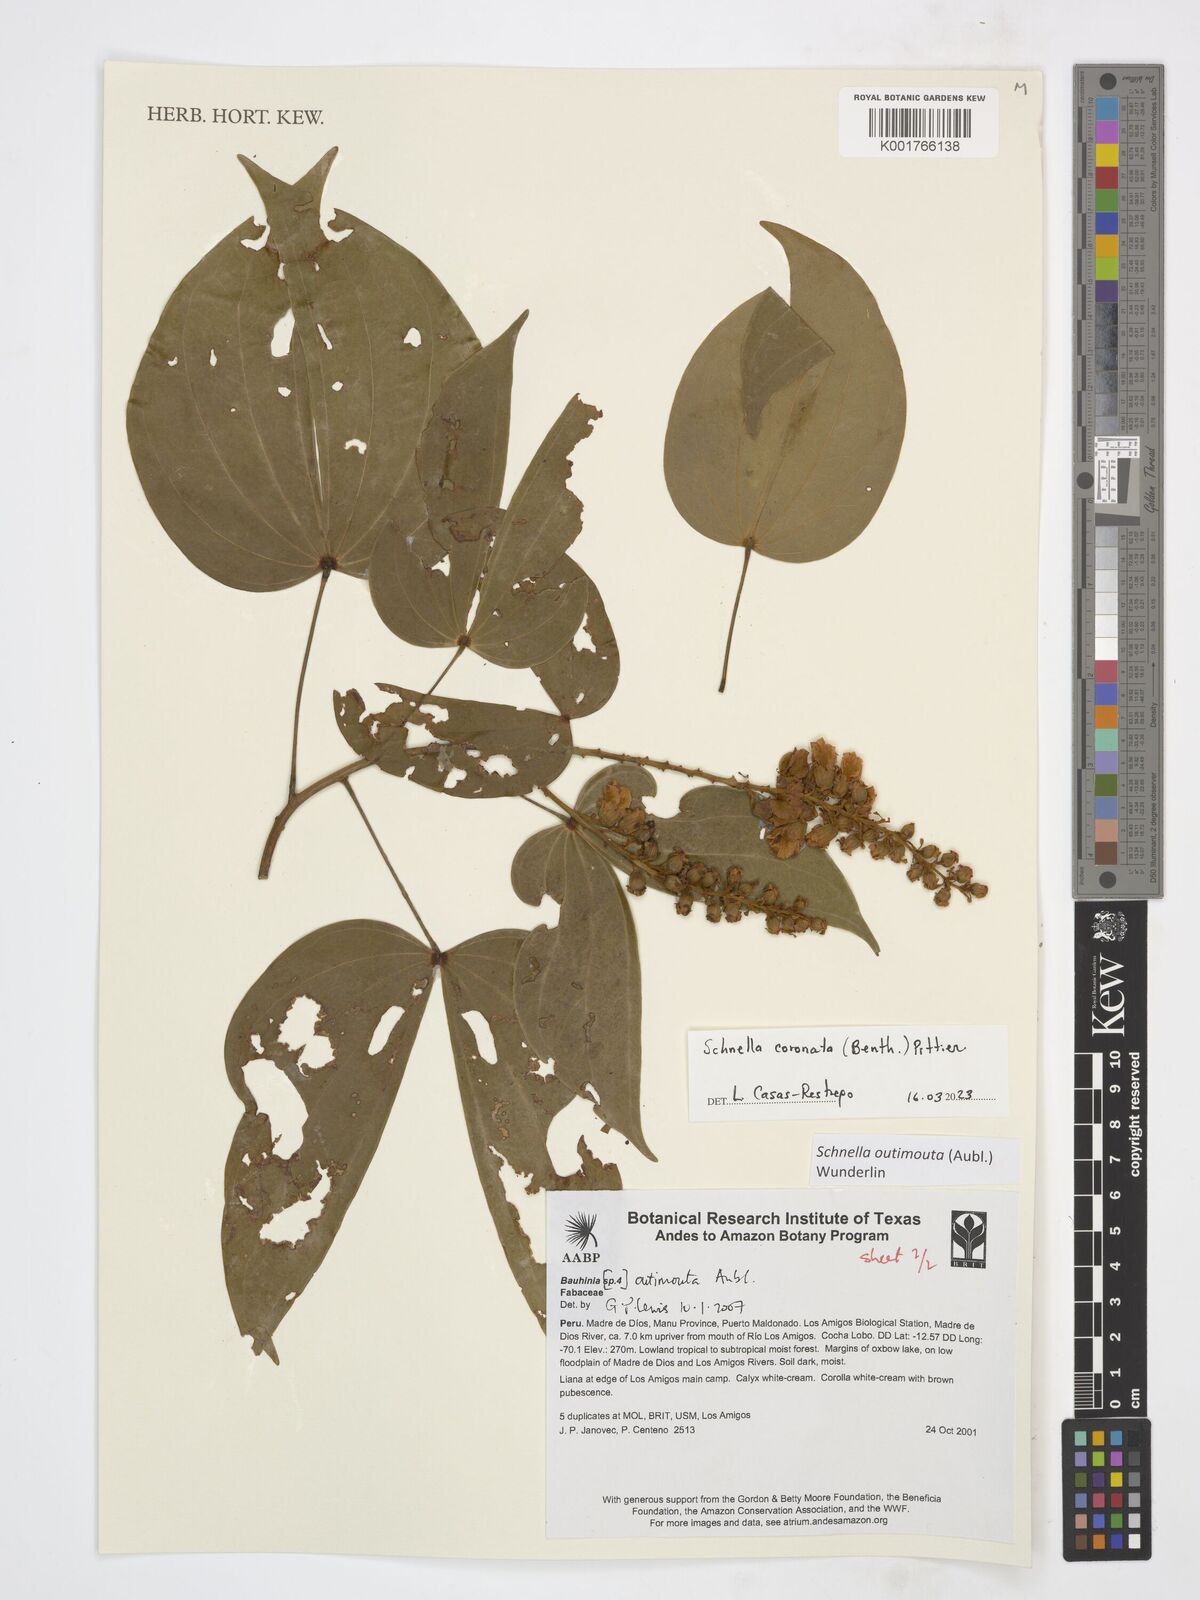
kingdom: Plantae
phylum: Tracheophyta
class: Magnoliopsida
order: Fabales
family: Fabaceae
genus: Schnella
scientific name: Schnella outimouta
